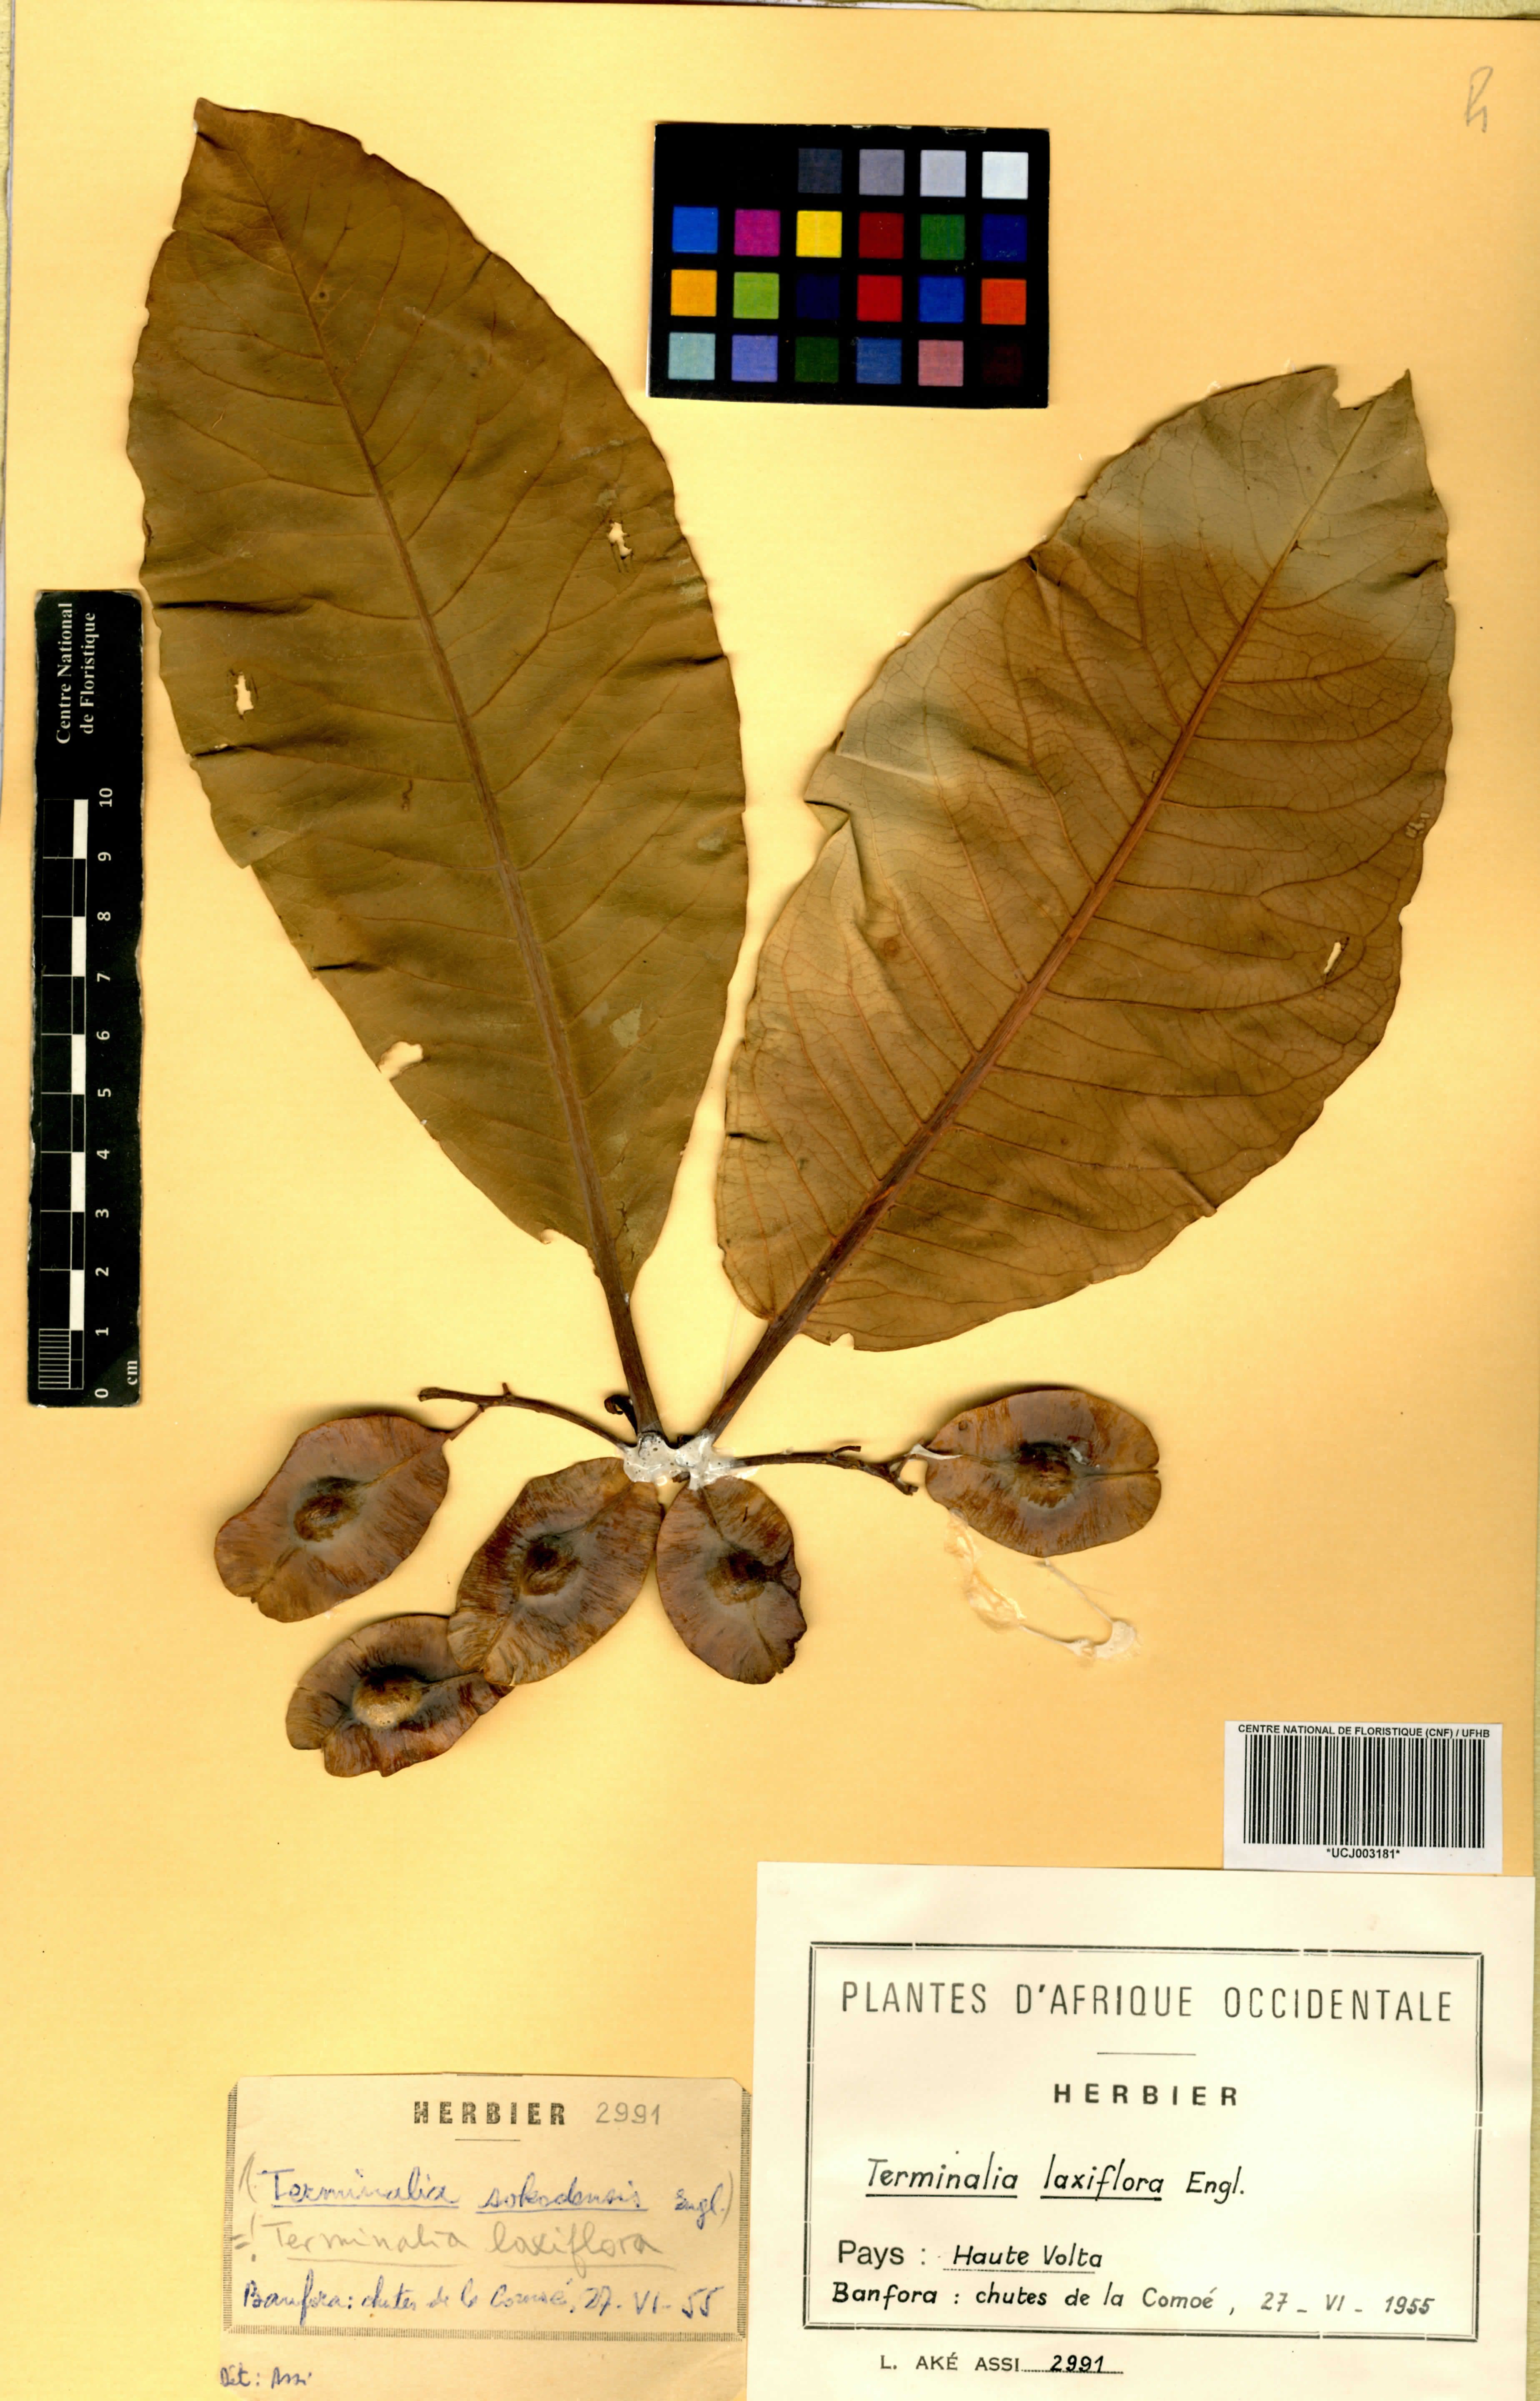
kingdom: Plantae
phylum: Tracheophyta
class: Magnoliopsida
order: Myrtales
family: Combretaceae
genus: Terminalia
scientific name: Terminalia laxiflora
